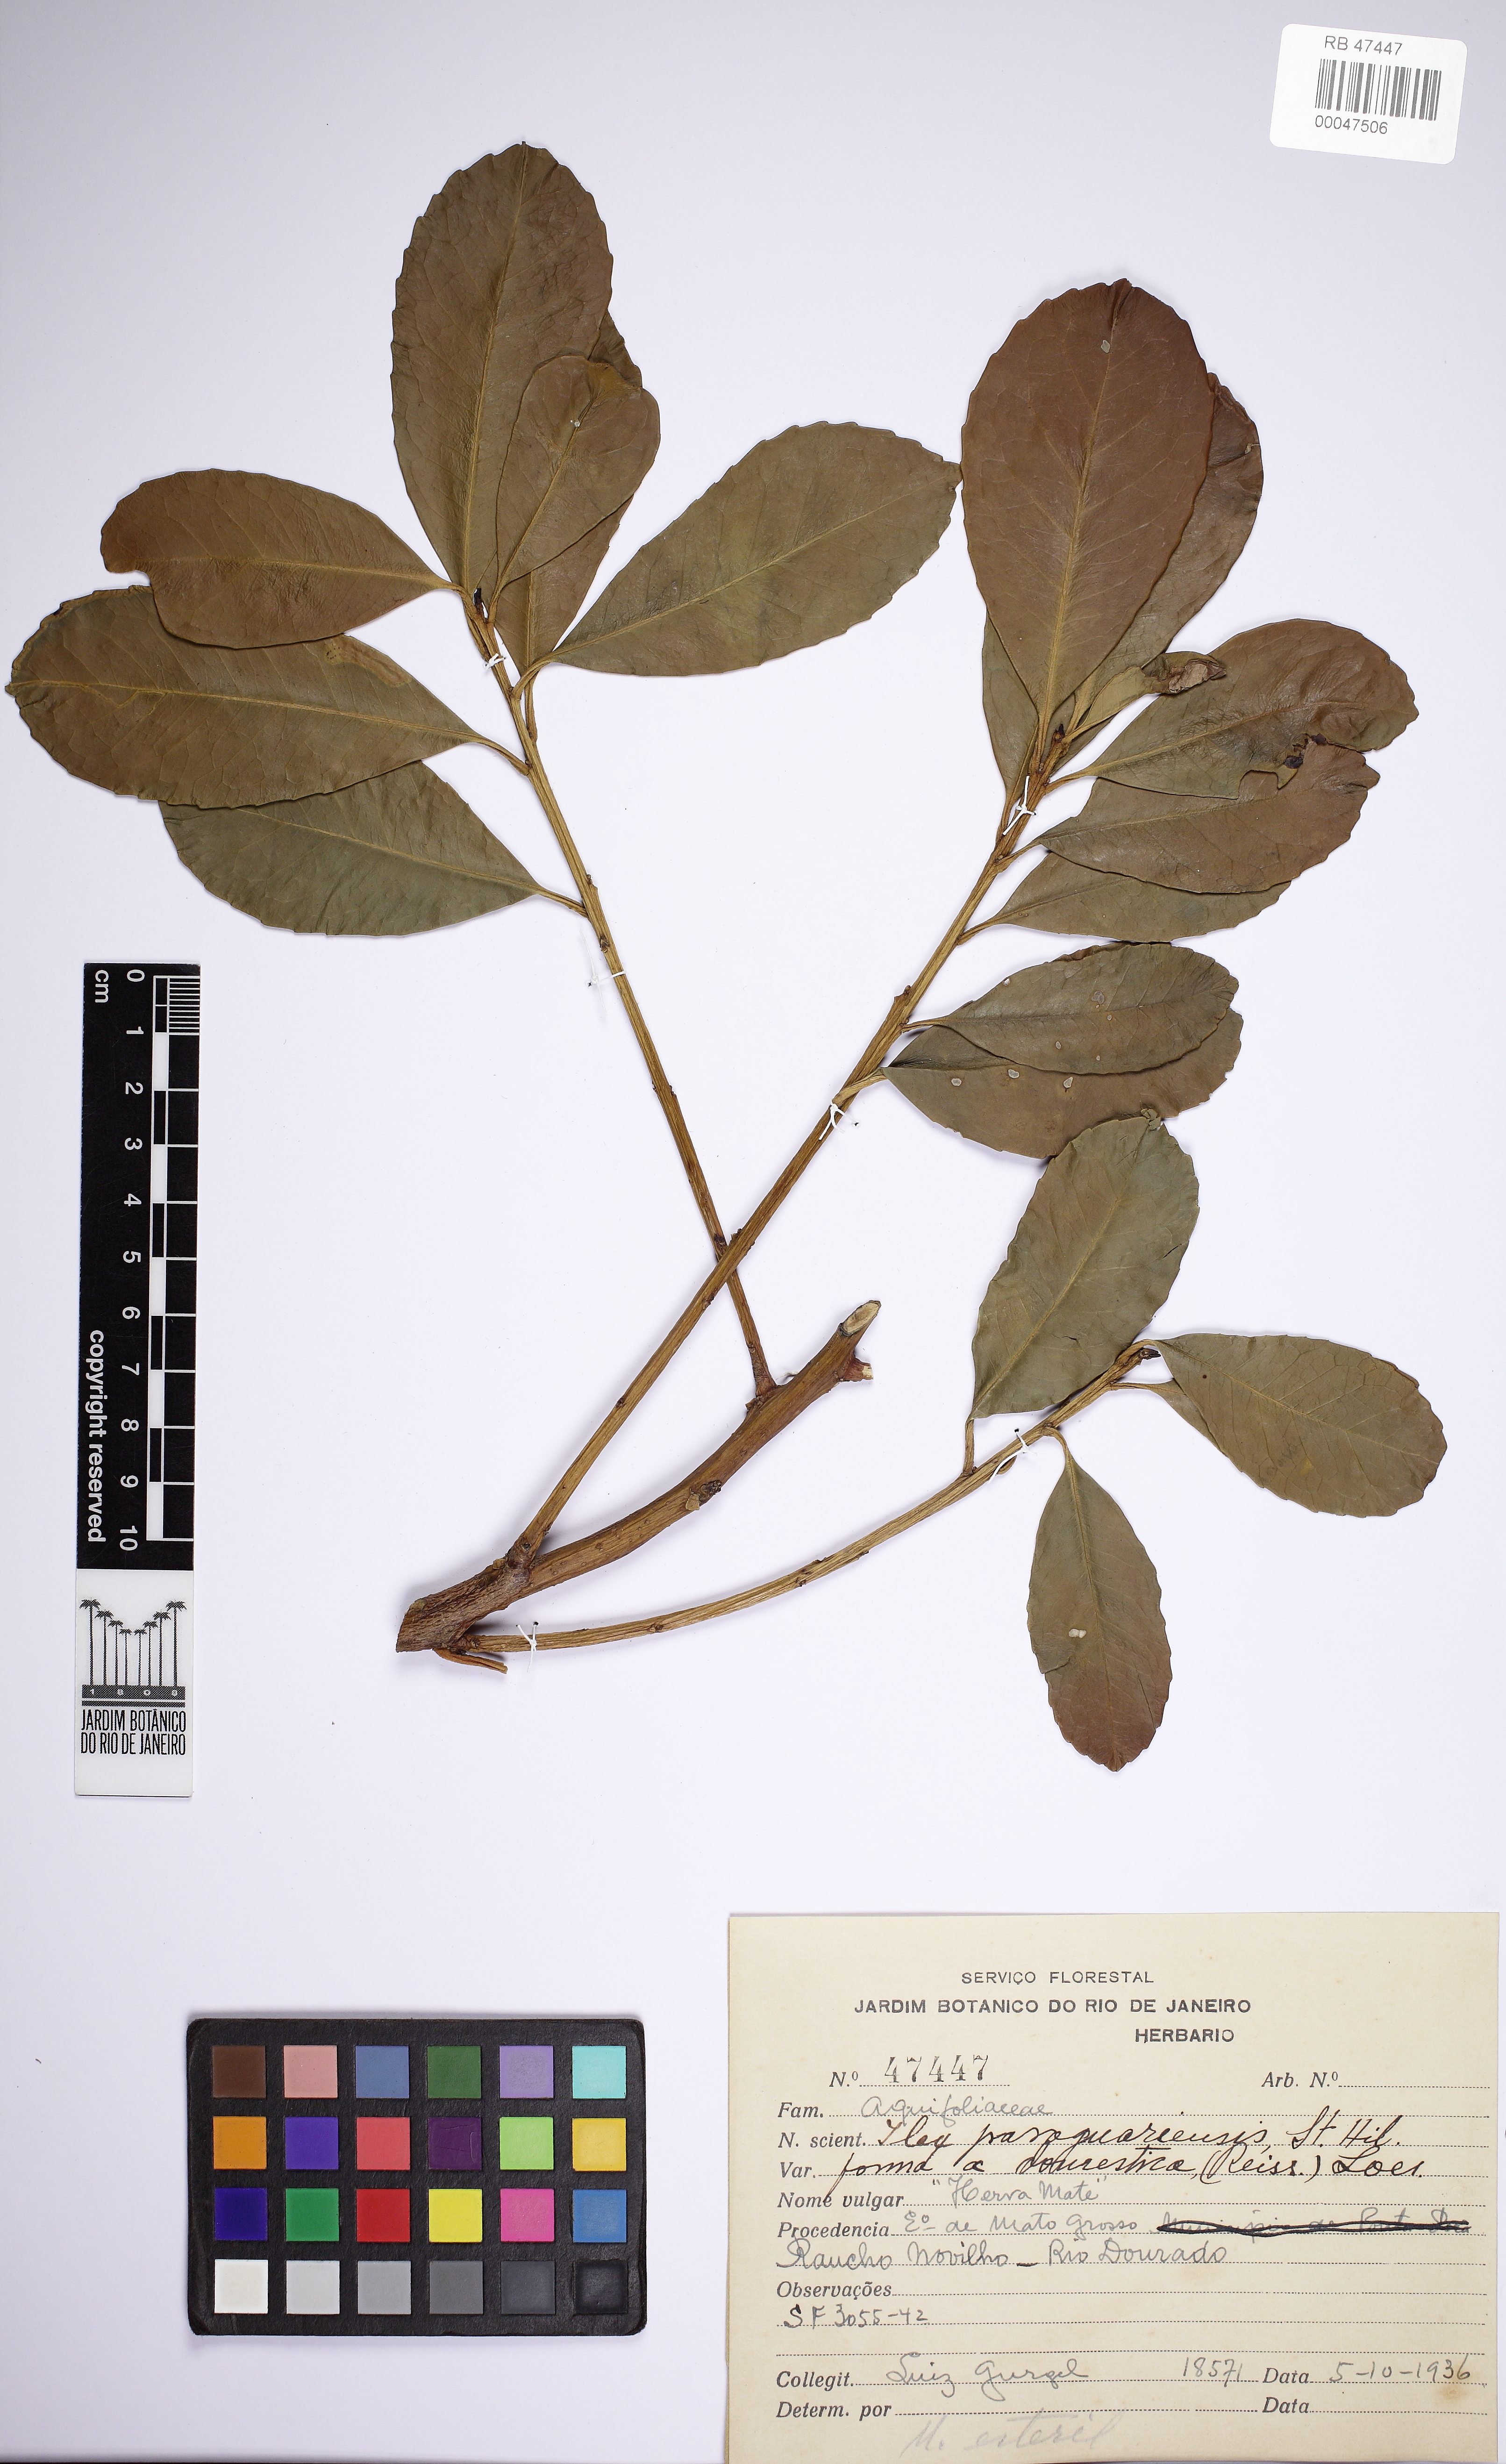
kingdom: Plantae
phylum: Tracheophyta
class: Magnoliopsida
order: Aquifoliales
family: Aquifoliaceae
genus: Ilex
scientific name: Ilex paraguariensis
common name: Paraguay tea
